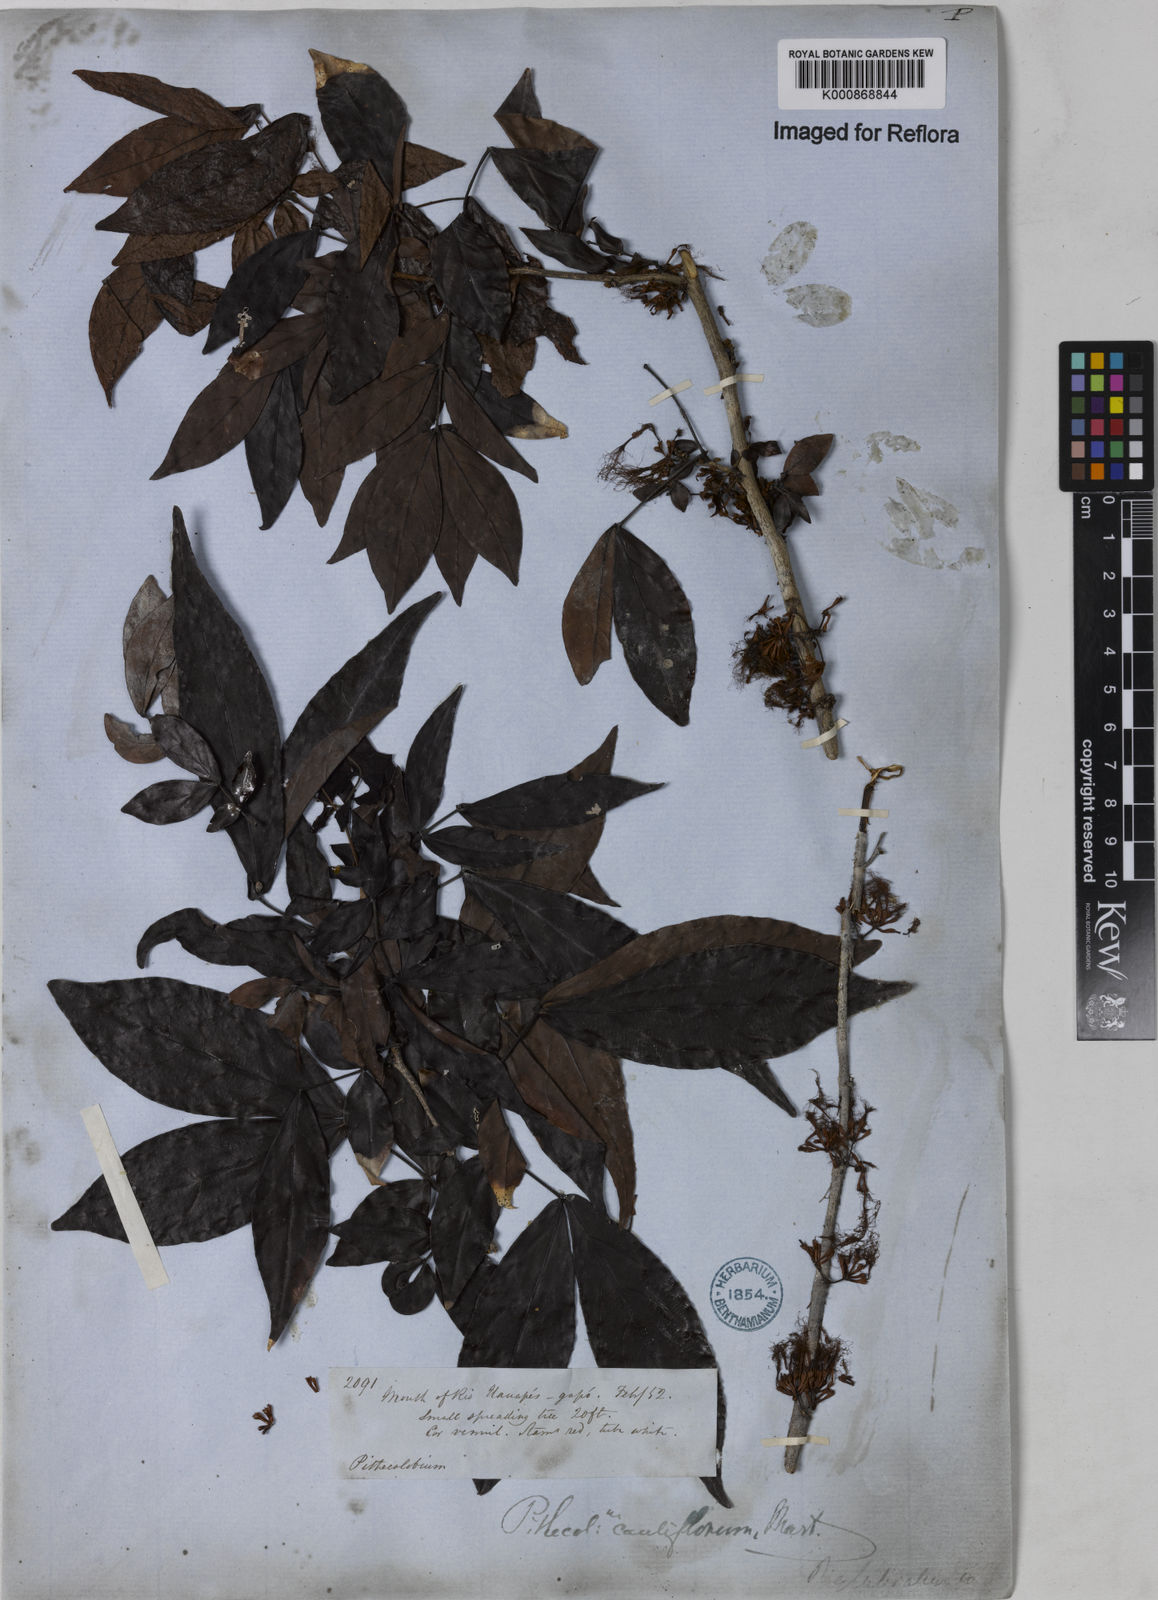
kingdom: Plantae
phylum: Tracheophyta
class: Magnoliopsida
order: Fabales
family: Fabaceae
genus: Zygia
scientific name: Zygia
